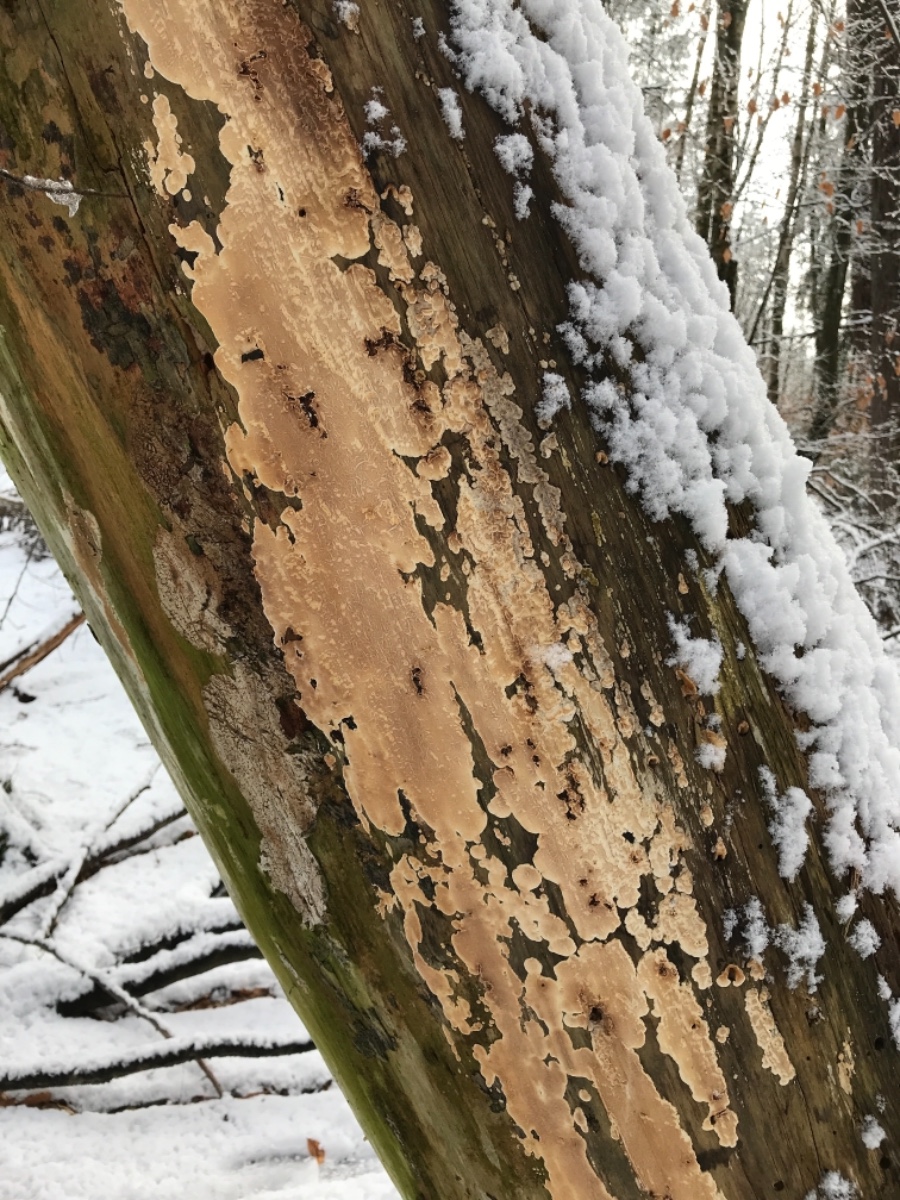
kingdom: Fungi
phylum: Basidiomycota
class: Agaricomycetes
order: Agaricales
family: Physalacriaceae
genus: Cylindrobasidium
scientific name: Cylindrobasidium evolvens
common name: sprækkehinde
